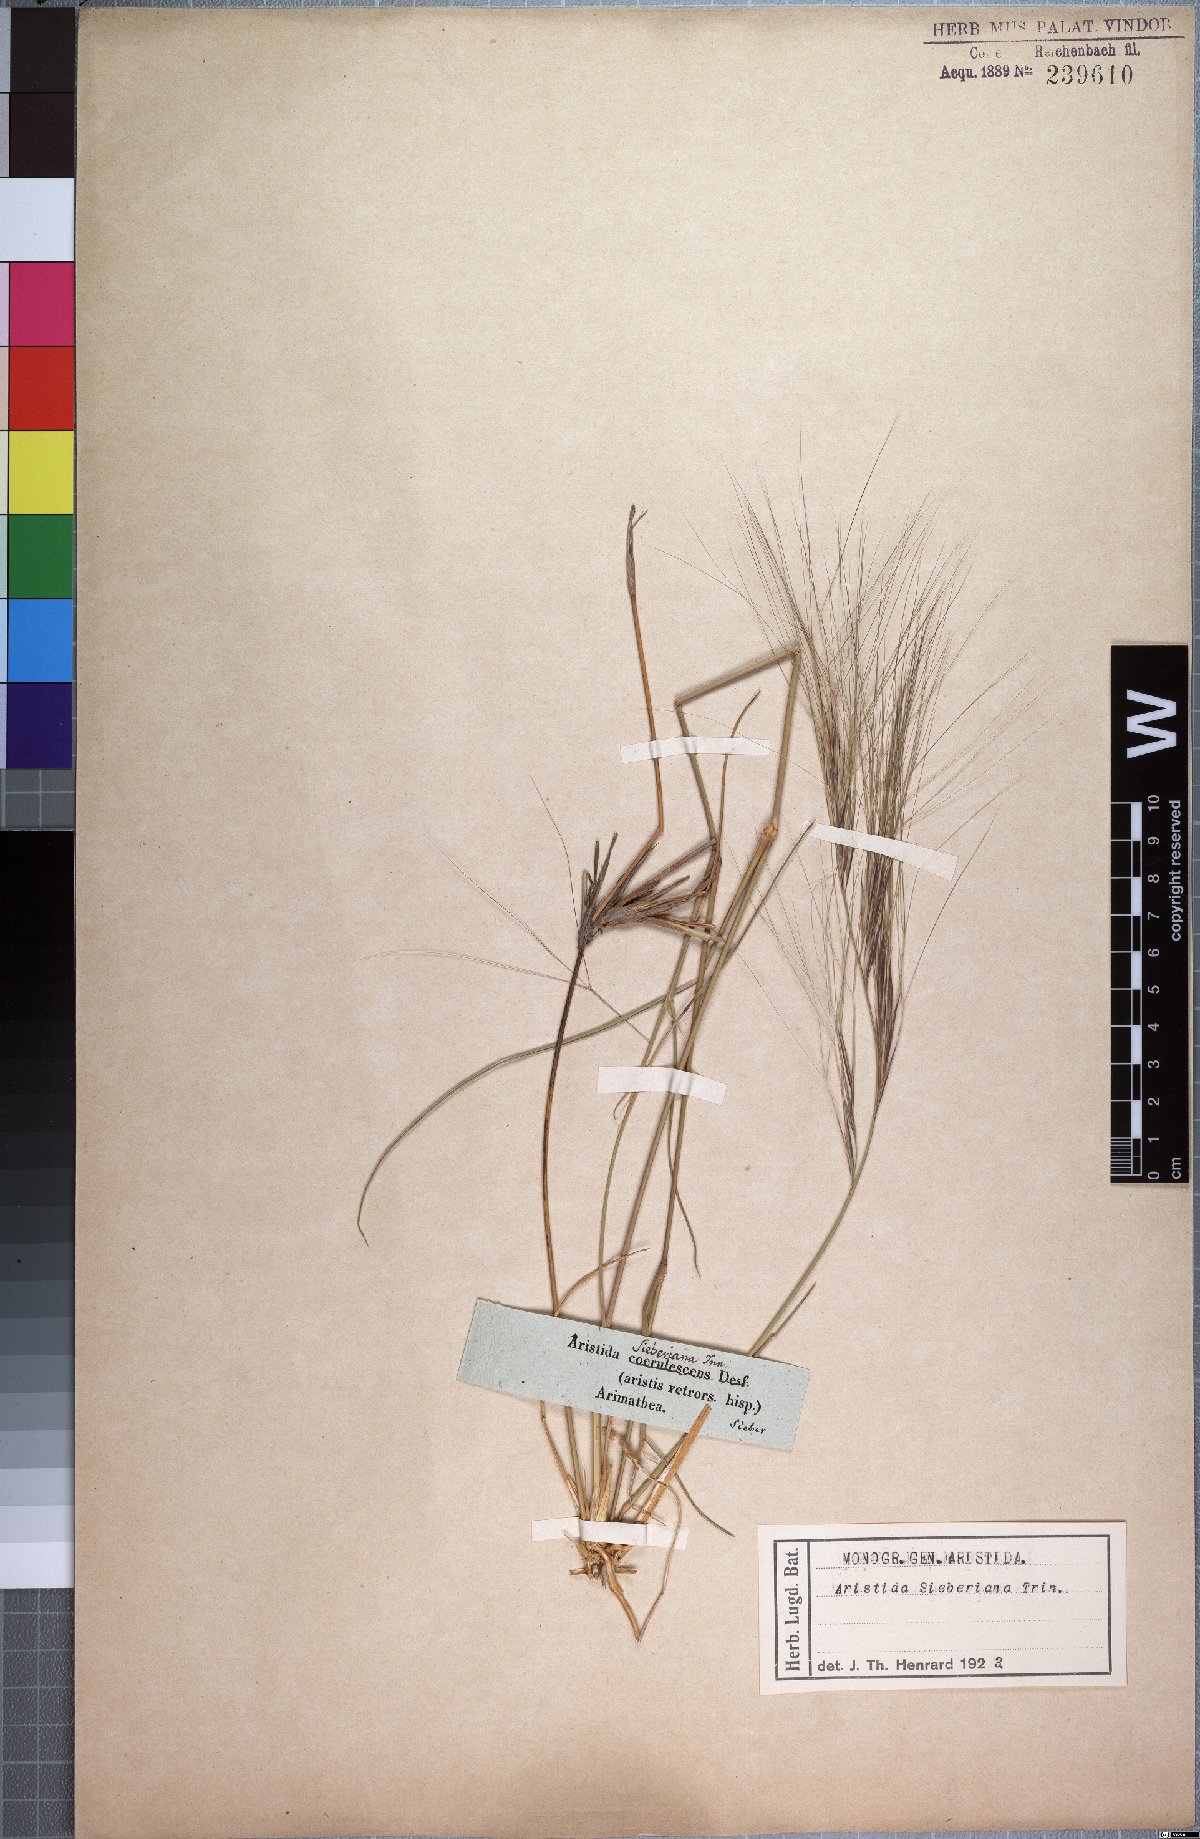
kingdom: Plantae
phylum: Tracheophyta
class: Liliopsida
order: Poales
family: Poaceae
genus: Aristida
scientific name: Aristida sieberiana
